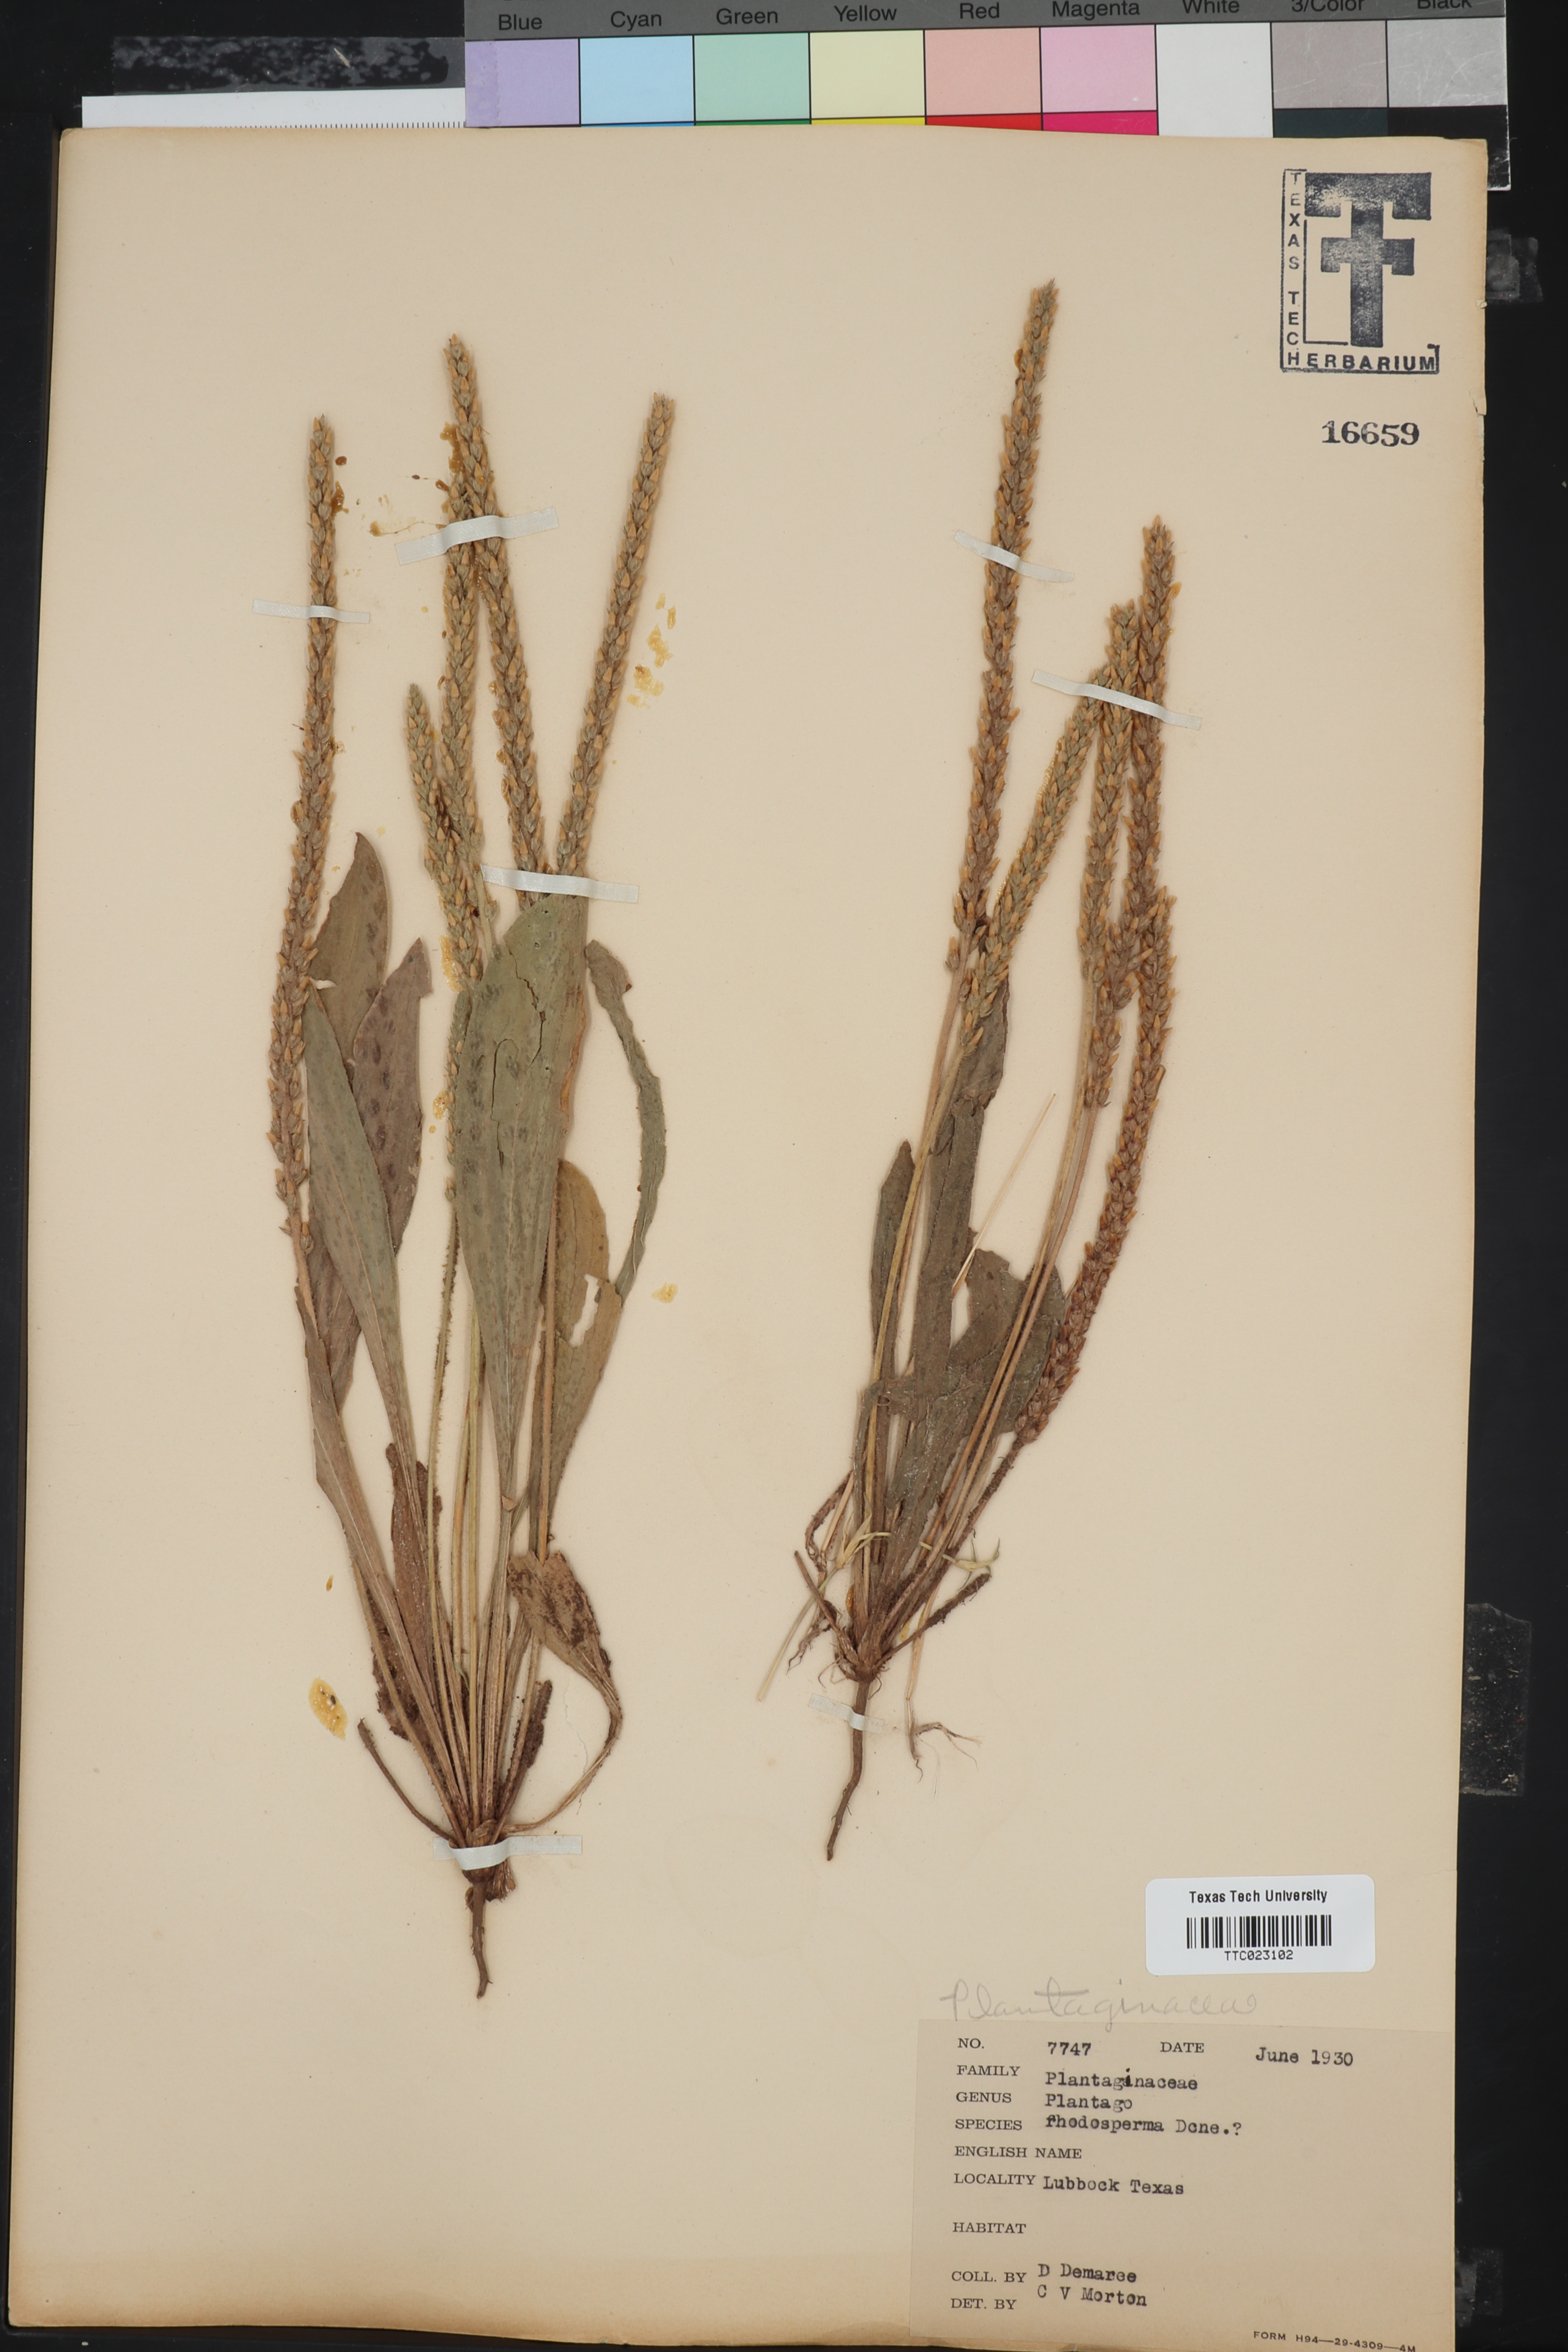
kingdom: Plantae
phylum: Tracheophyta
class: Magnoliopsida
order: Lamiales
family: Plantaginaceae
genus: Plantago
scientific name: Plantago
